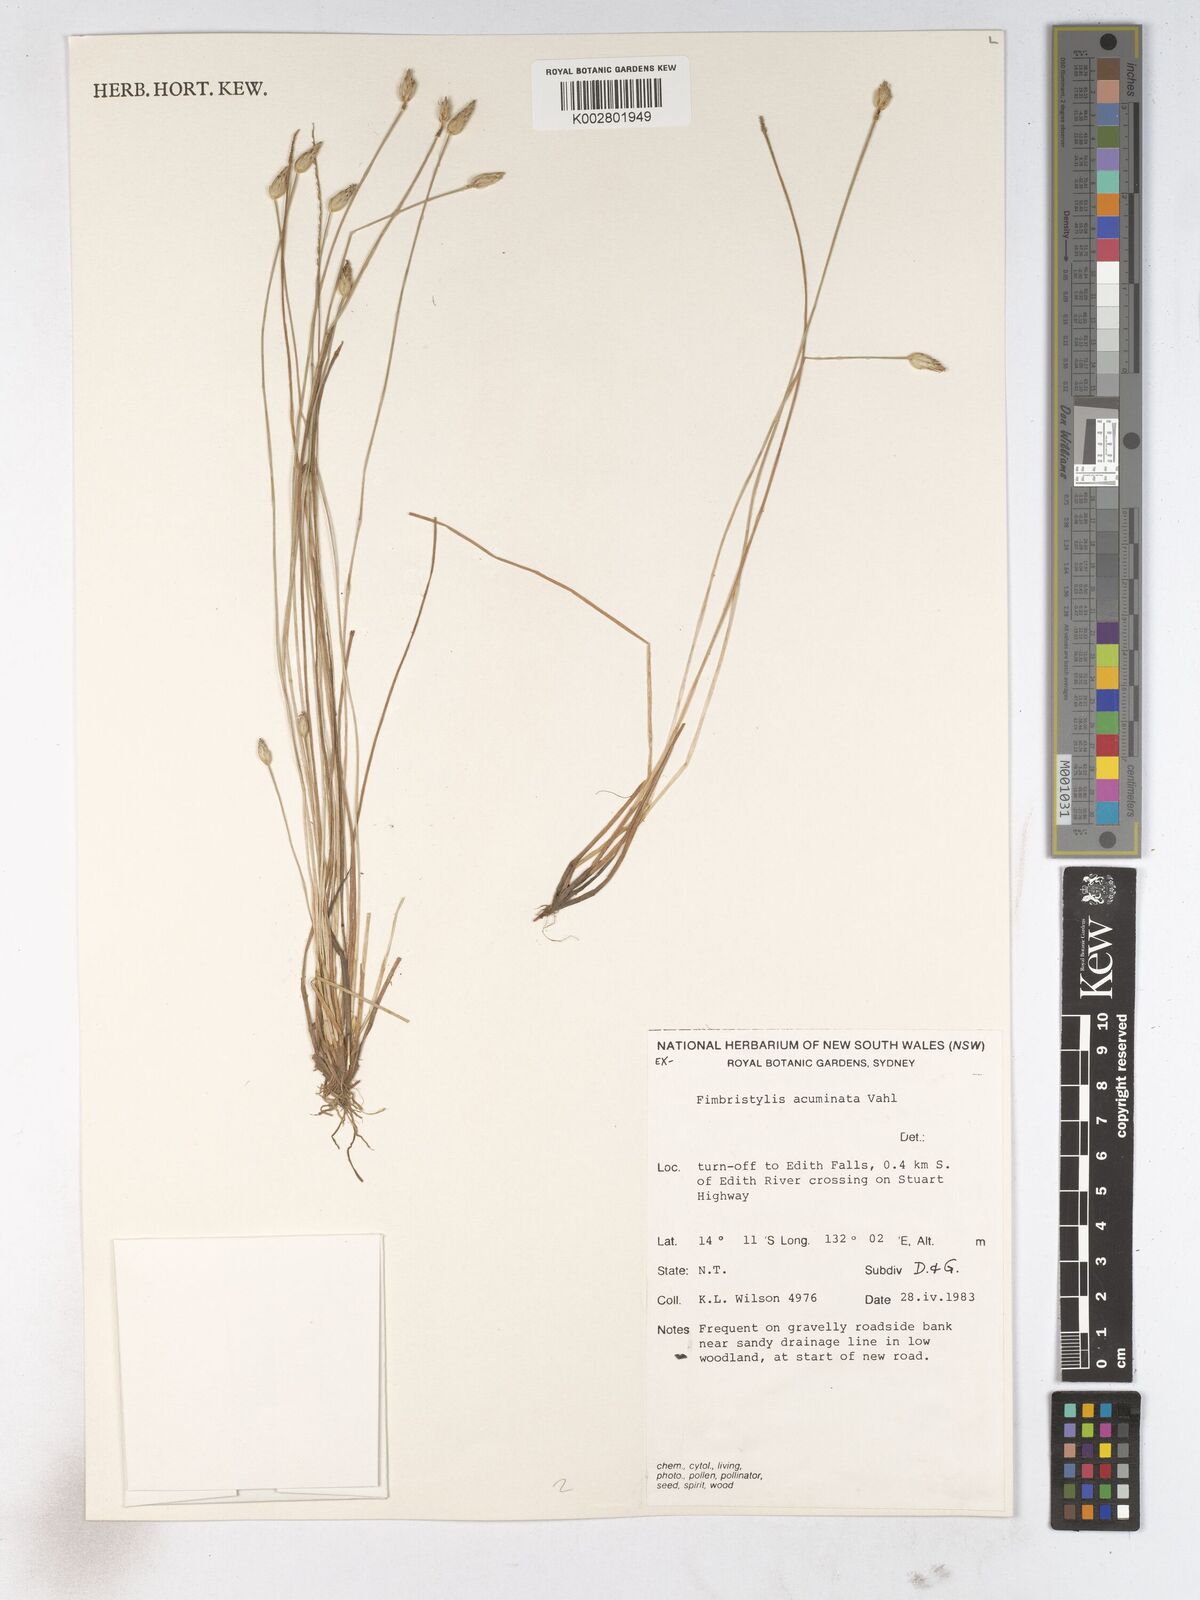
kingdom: Plantae
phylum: Tracheophyta
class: Liliopsida
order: Poales
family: Cyperaceae
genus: Fimbristylis
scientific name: Fimbristylis acuminata
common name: Pointed fimbristylis
